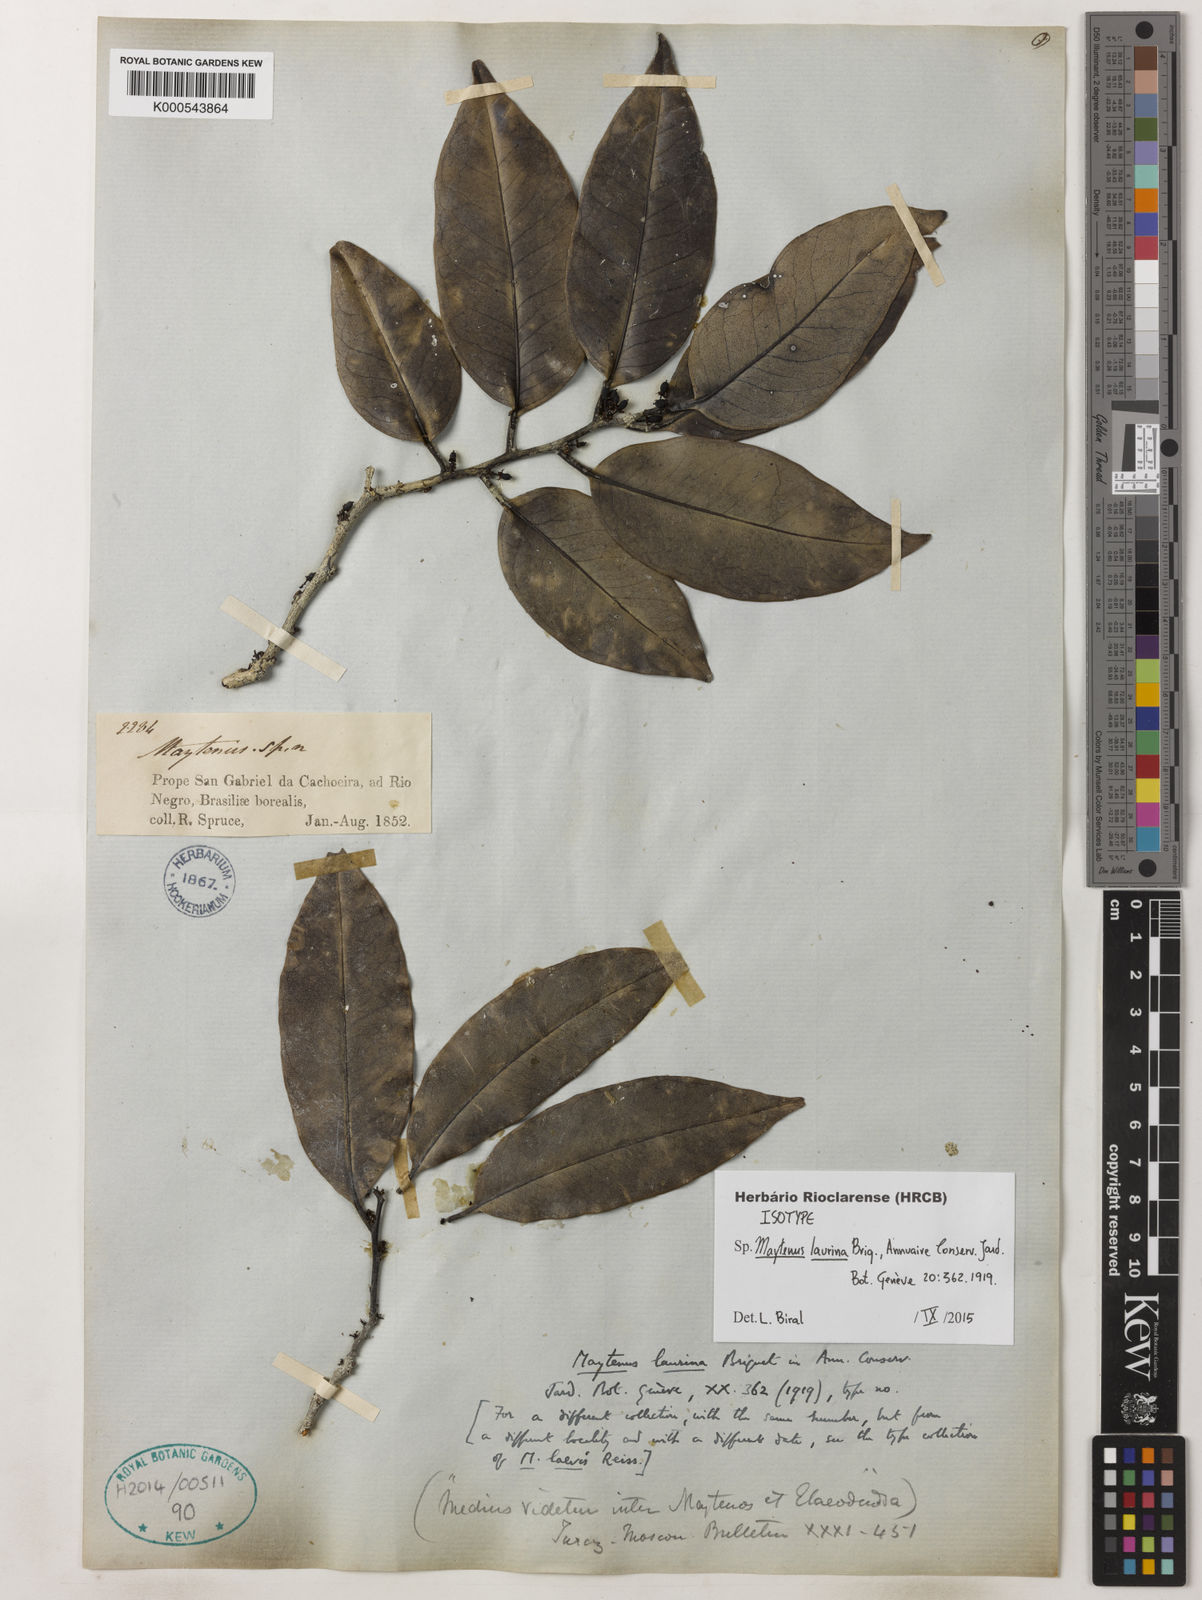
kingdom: Plantae
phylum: Tracheophyta
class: Magnoliopsida
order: Celastrales
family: Celastraceae
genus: Monteverdia
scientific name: Monteverdia laurina
